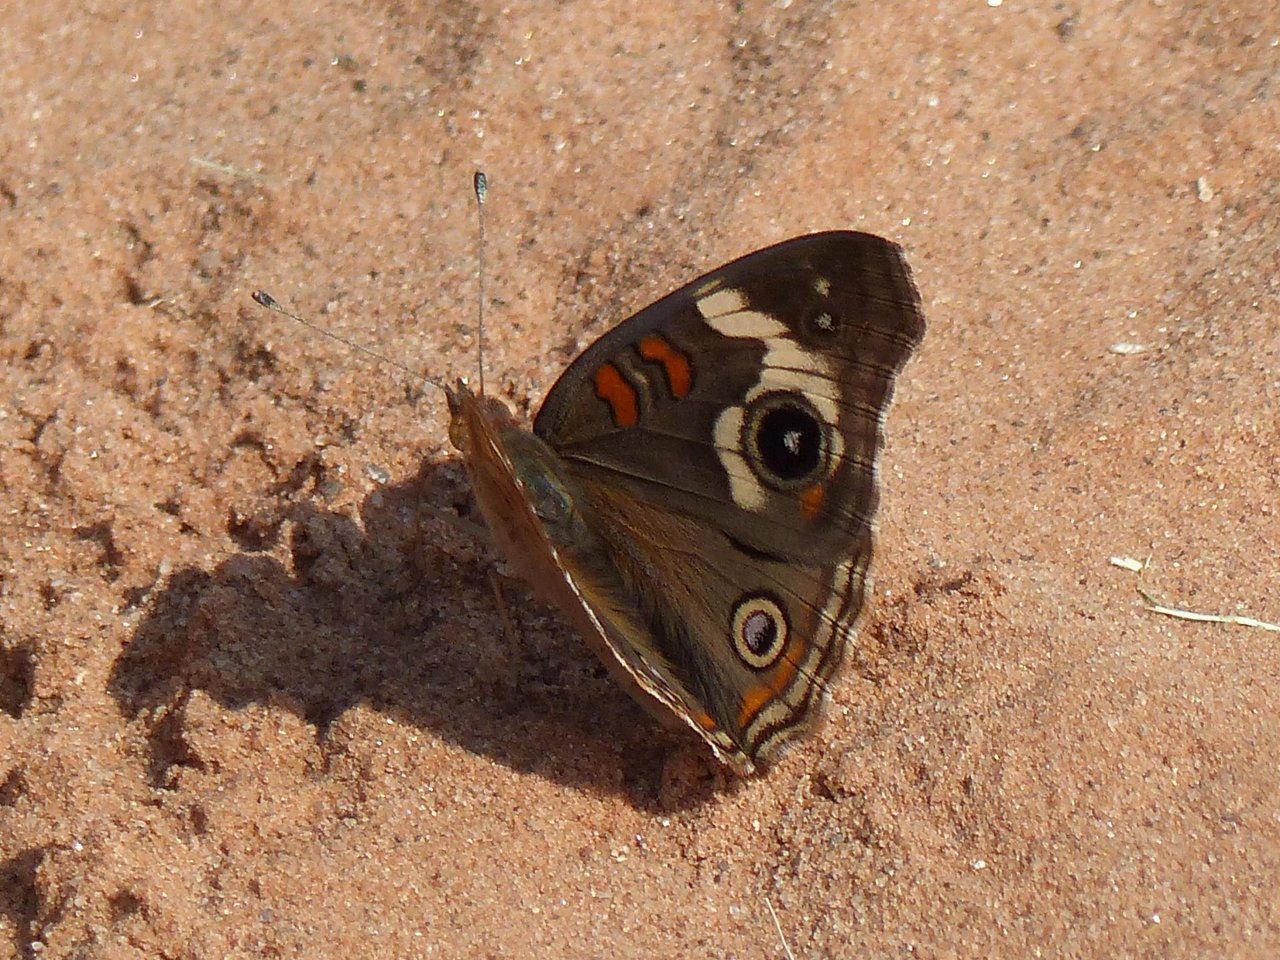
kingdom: Animalia
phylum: Arthropoda
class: Insecta
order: Lepidoptera
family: Nymphalidae
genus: Junonia
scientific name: Junonia coenia
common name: Common Buckeye
